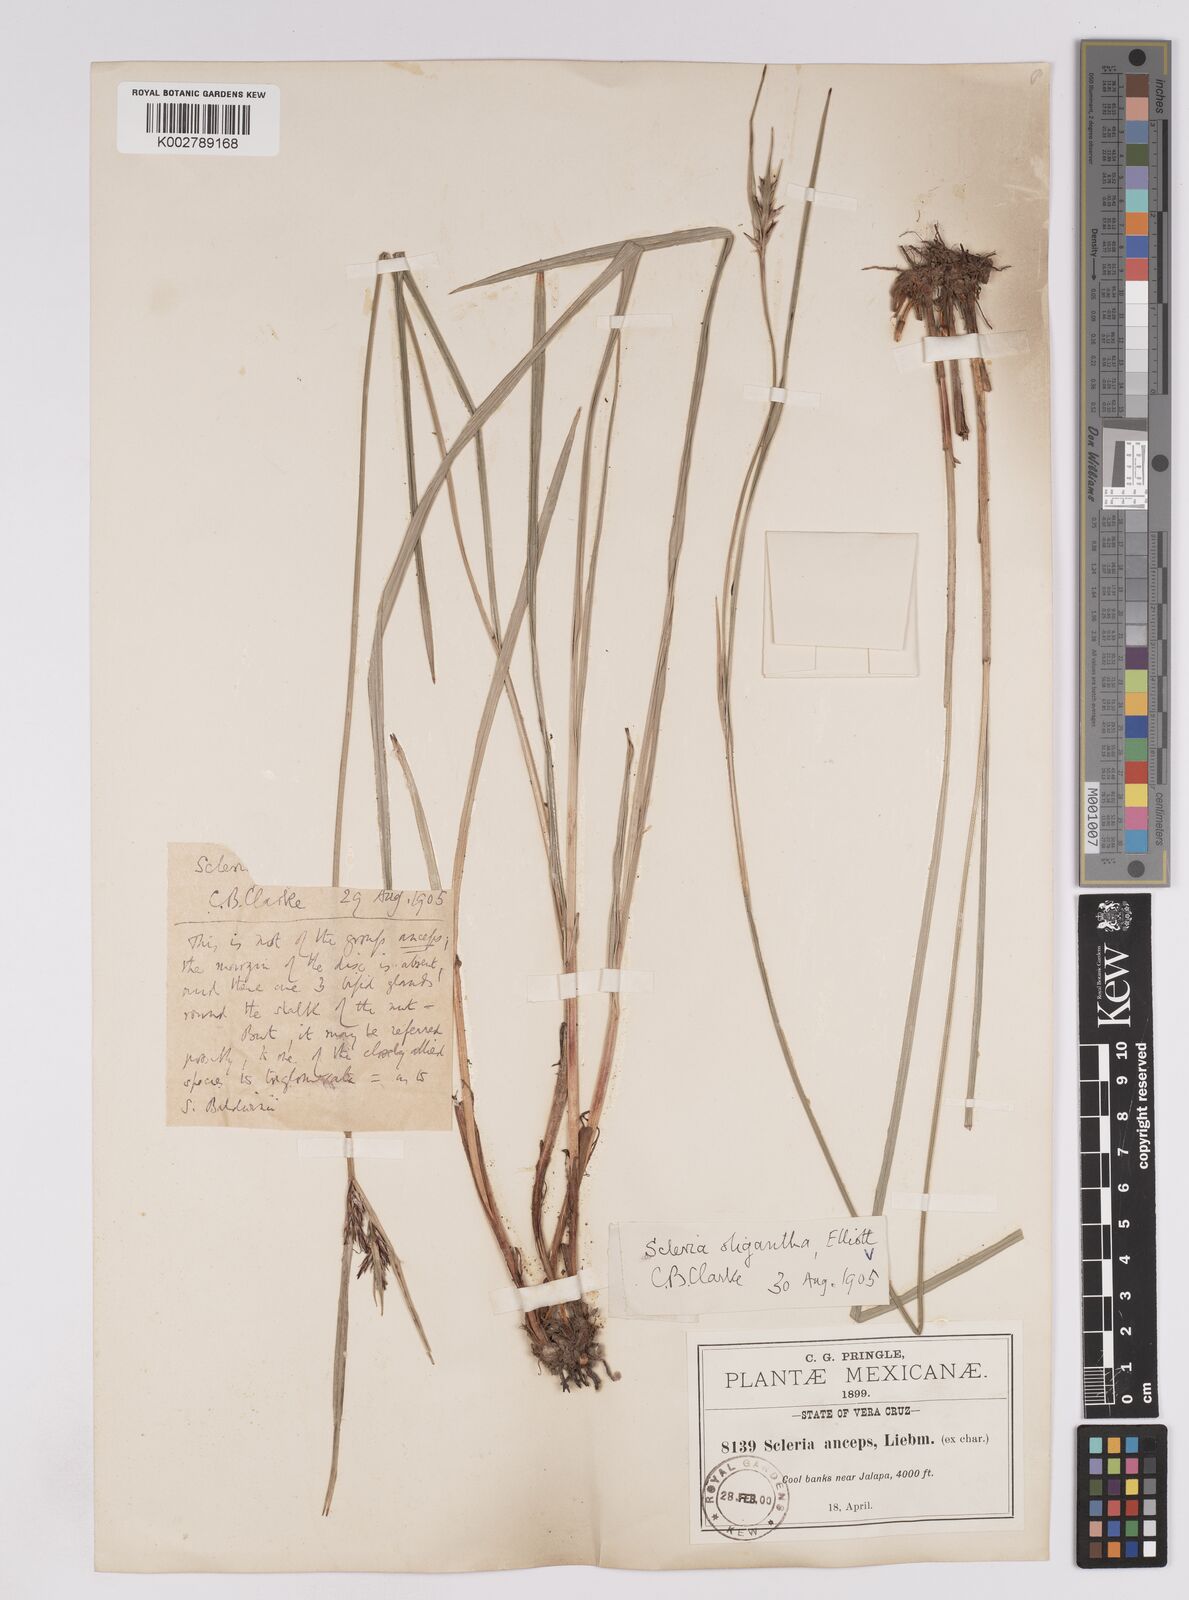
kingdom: Plantae
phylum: Tracheophyta
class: Liliopsida
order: Poales
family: Cyperaceae
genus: Scleria
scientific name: Scleria oligantha
